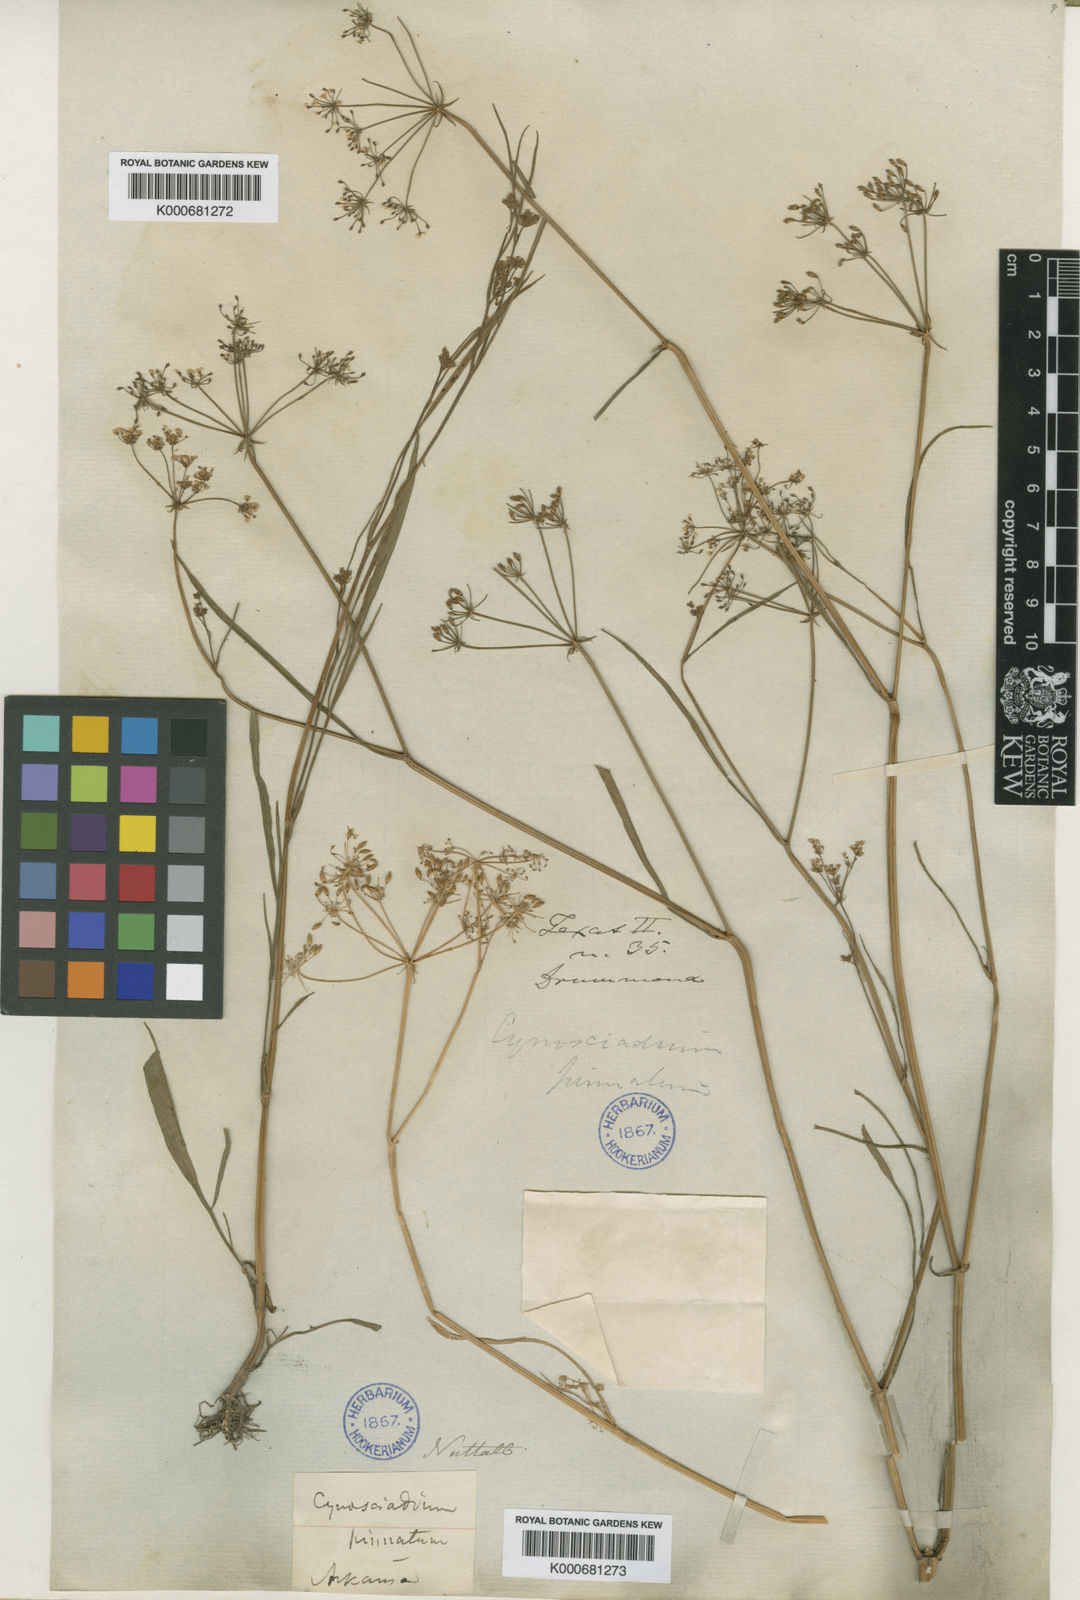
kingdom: Plantae
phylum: Tracheophyta
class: Magnoliopsida
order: Apiales
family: Apiaceae
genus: Limnosciadium
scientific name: Limnosciadium pinnatum
